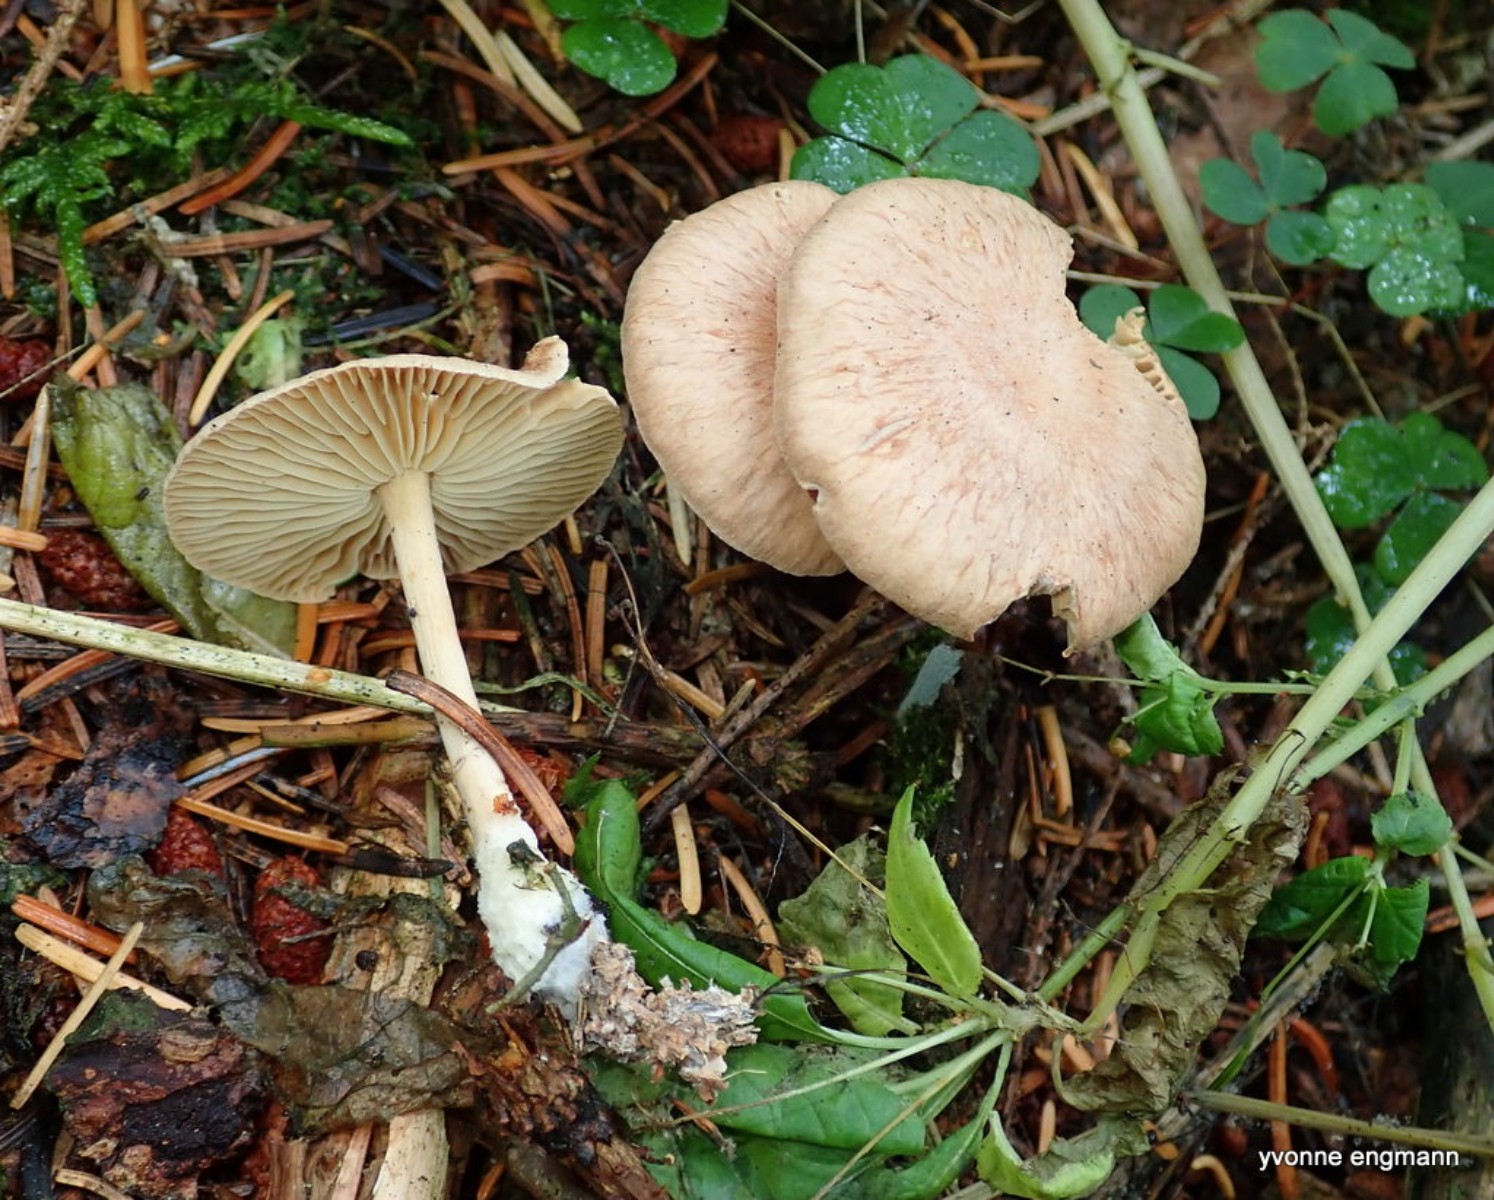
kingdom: Fungi
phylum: Basidiomycota
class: Agaricomycetes
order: Agaricales
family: Omphalotaceae
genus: Collybiopsis
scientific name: Collybiopsis peronata
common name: bestøvlet fladhat
